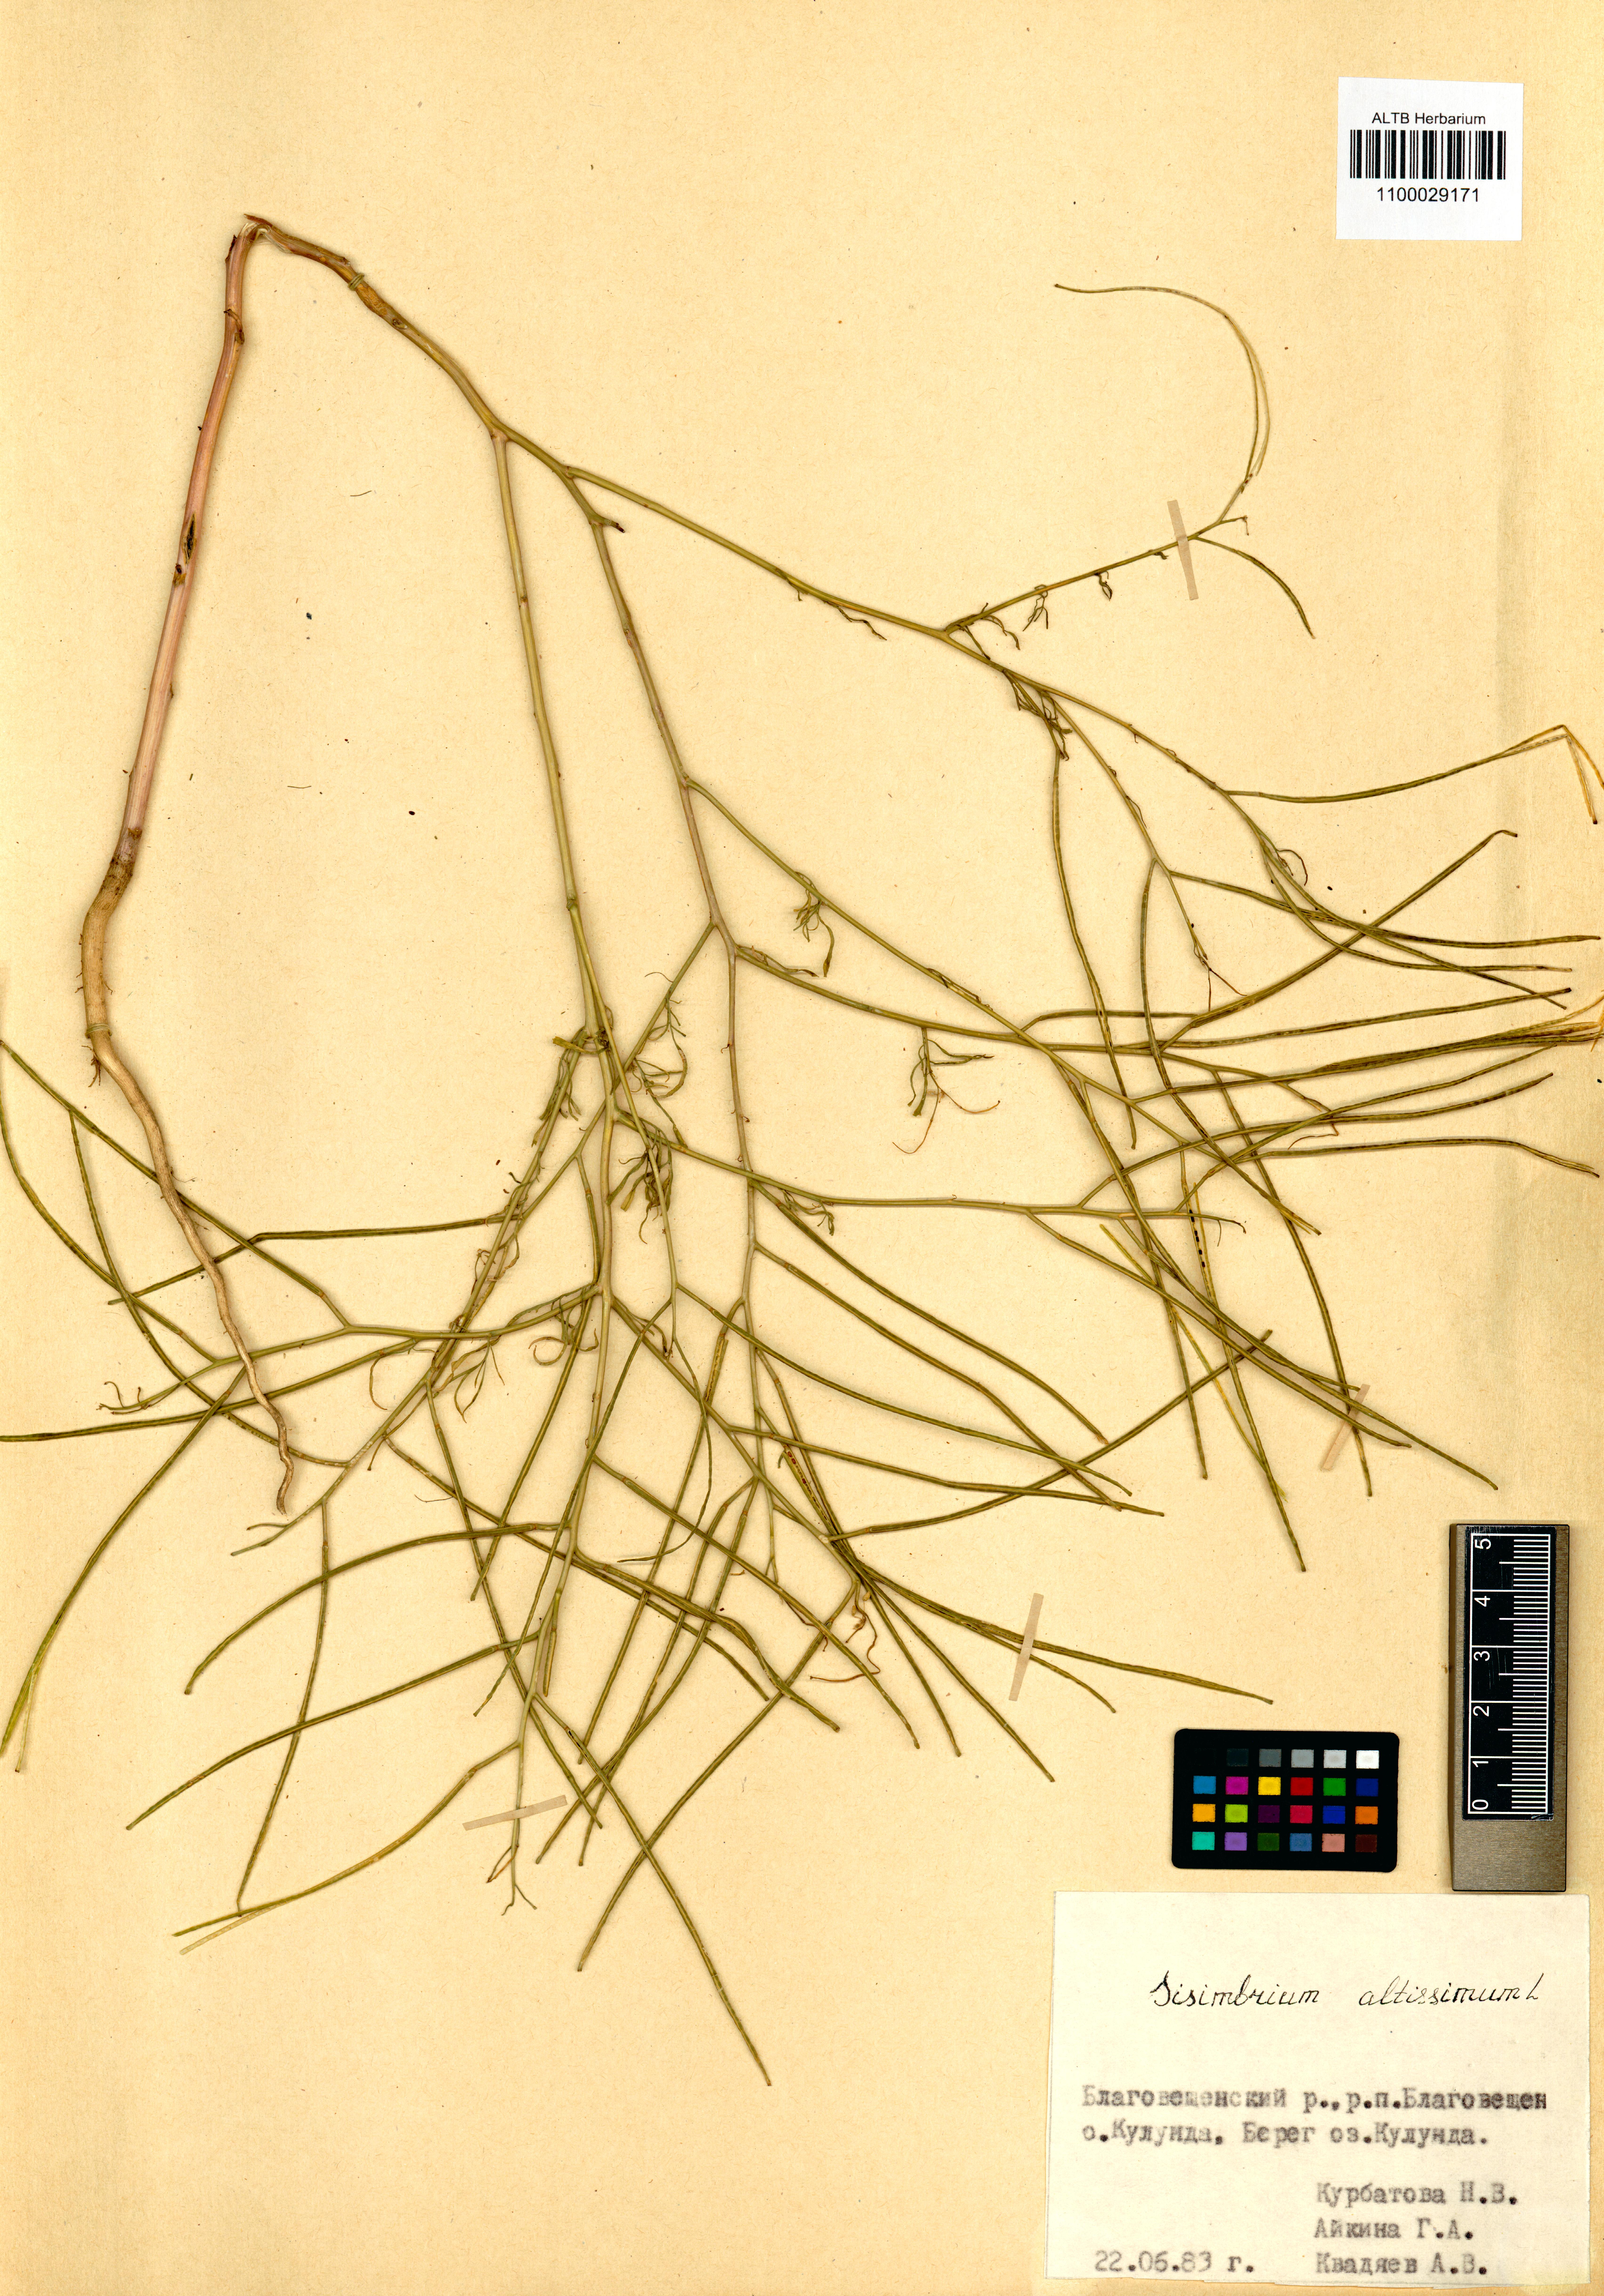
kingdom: Plantae
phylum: Tracheophyta
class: Magnoliopsida
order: Brassicales
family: Brassicaceae
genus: Sisymbrium
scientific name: Sisymbrium altissimum
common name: Tall rocket
